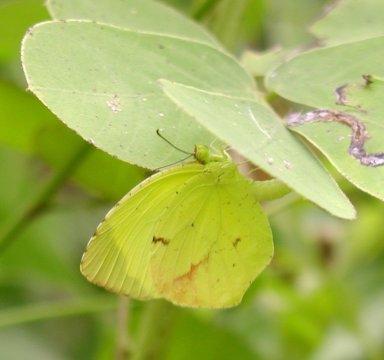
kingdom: Animalia
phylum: Arthropoda
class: Insecta
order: Lepidoptera
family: Pieridae
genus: Eurema
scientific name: Eurema boisduvaliana
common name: Boisduval's Yellow
